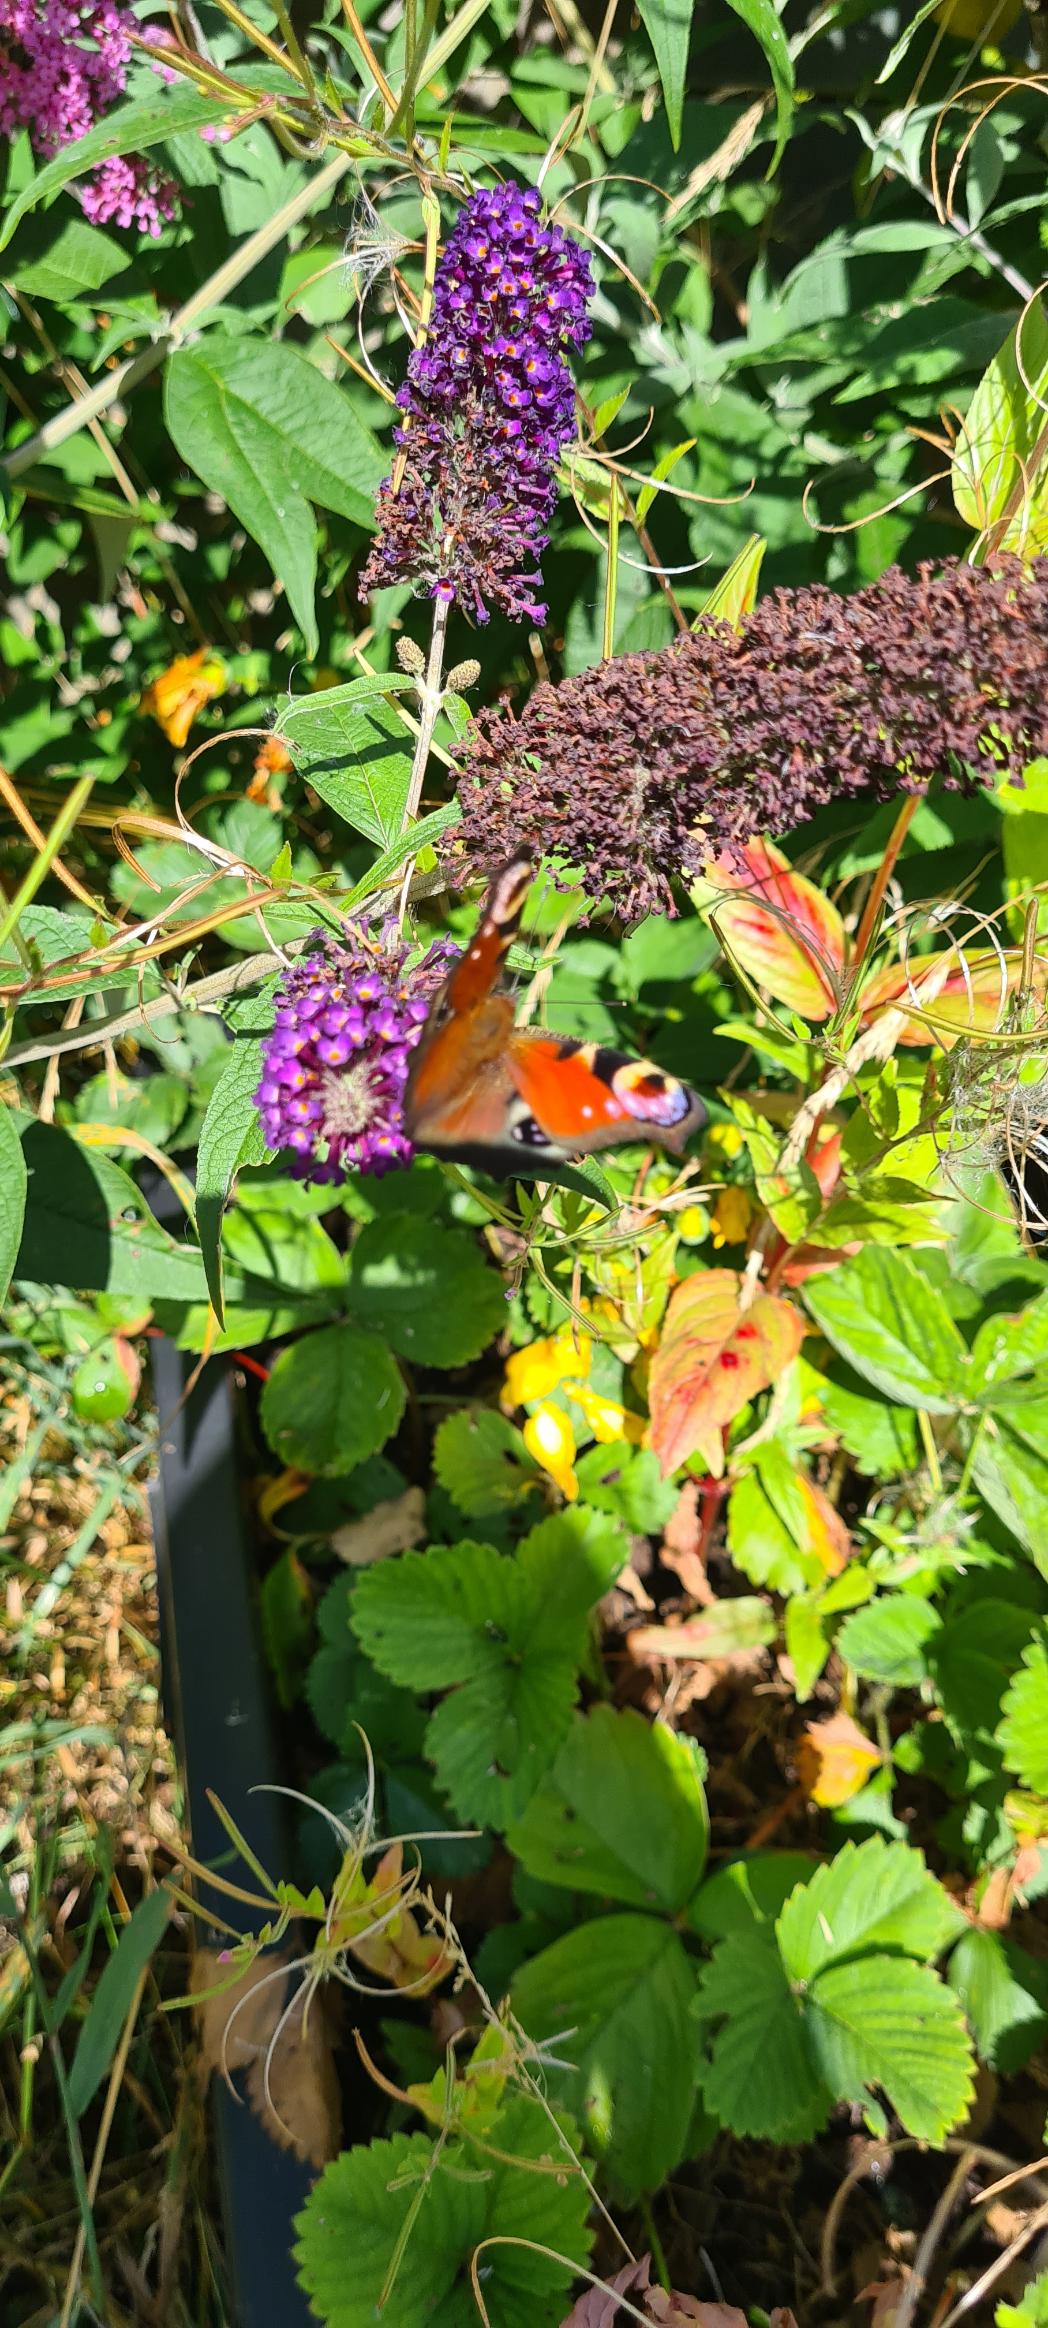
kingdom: Animalia
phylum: Arthropoda
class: Insecta
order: Lepidoptera
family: Nymphalidae
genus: Aglais
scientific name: Aglais io
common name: Dagpåfugleøje
